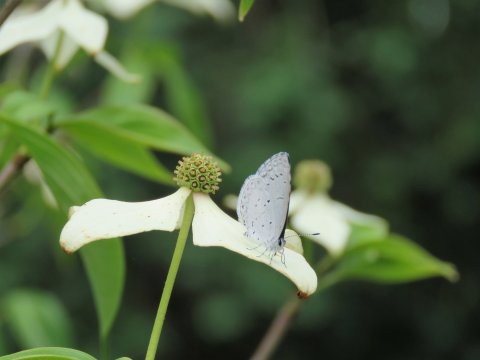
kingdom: Animalia
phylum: Arthropoda
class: Insecta
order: Lepidoptera
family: Lycaenidae
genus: Cyaniris
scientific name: Cyaniris neglecta
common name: Summer Azure
